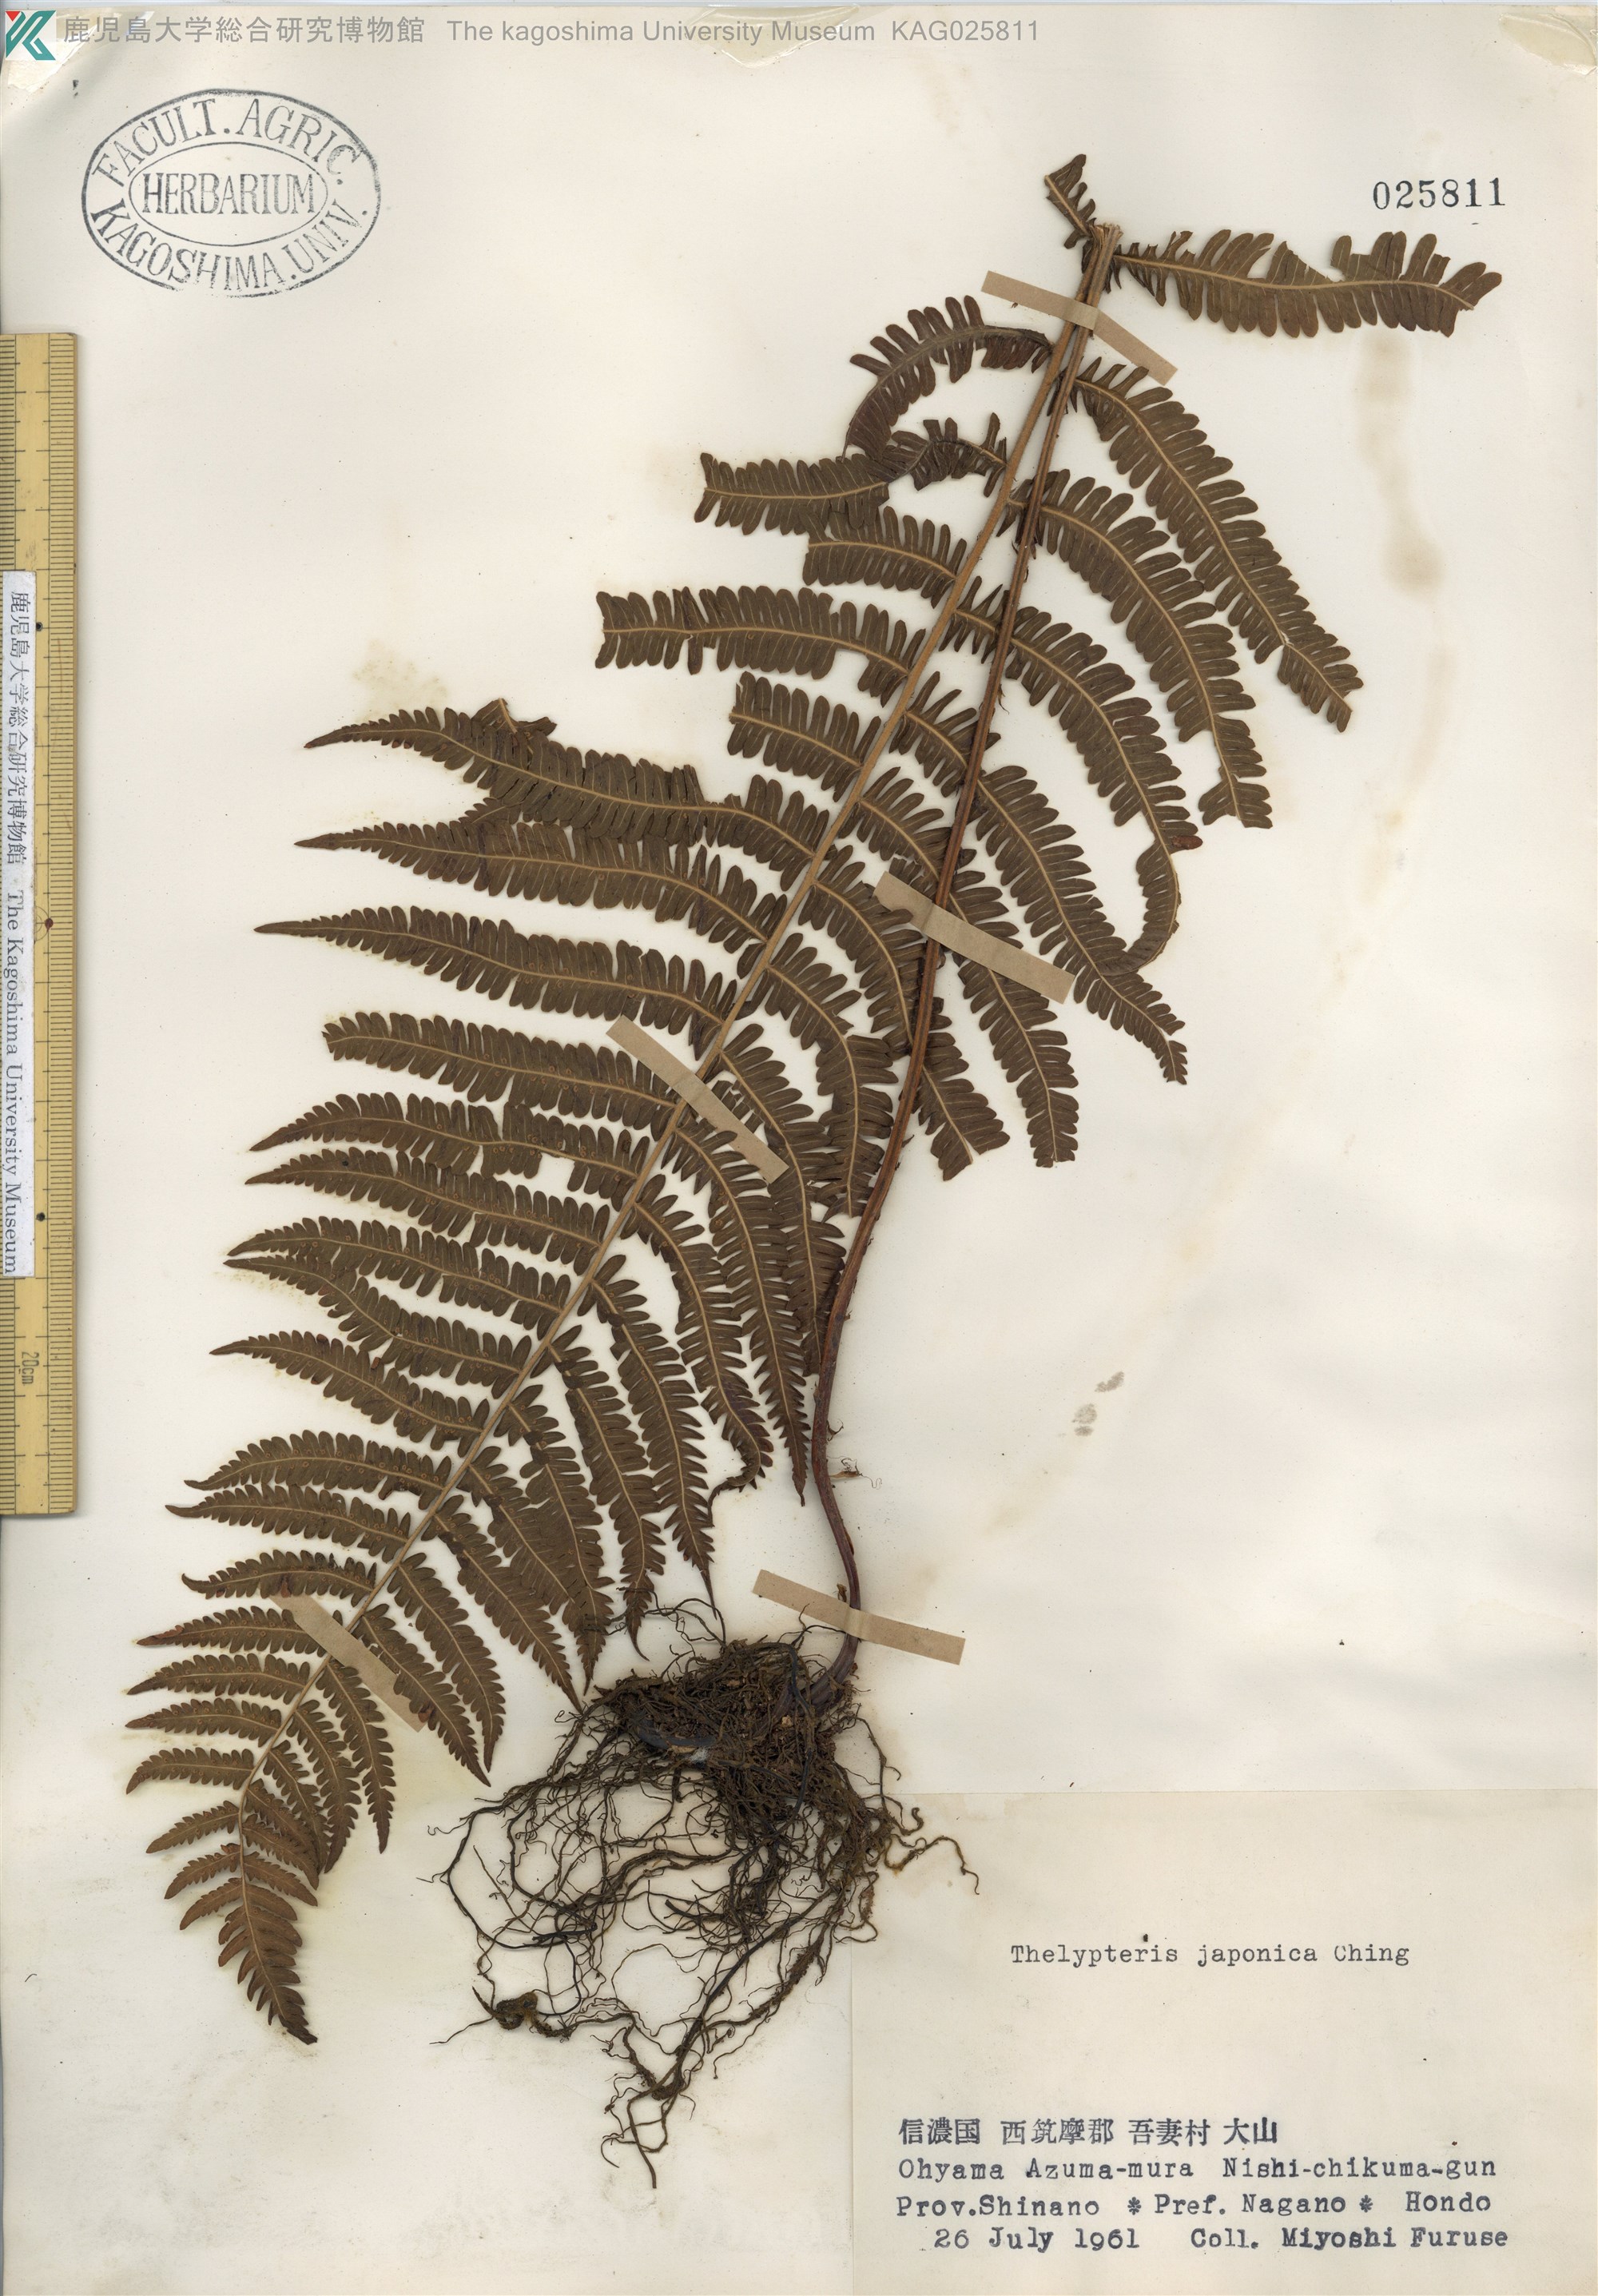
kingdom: Plantae
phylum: Tracheophyta
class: Polypodiopsida
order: Polypodiales
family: Thelypteridaceae
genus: Coryphopteris
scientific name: Coryphopteris japonica
